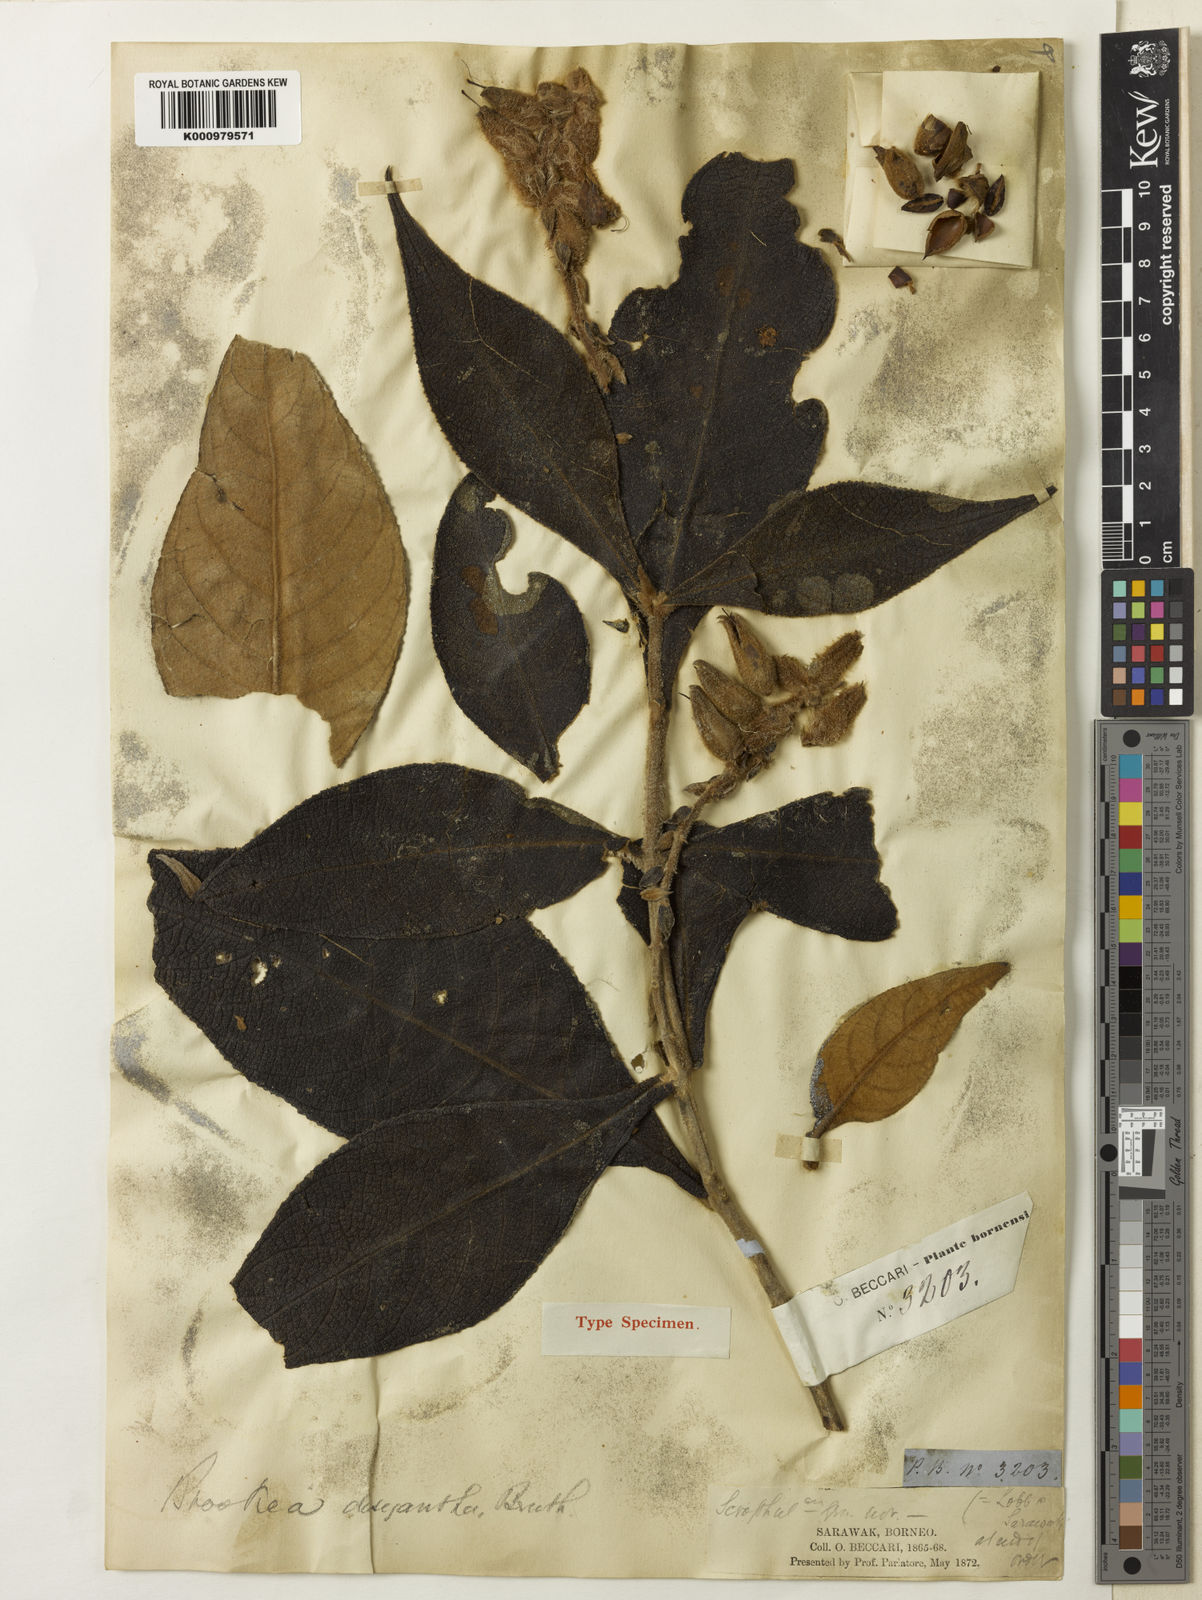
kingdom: Plantae
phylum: Tracheophyta
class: Magnoliopsida
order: Lamiales
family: Plantaginaceae
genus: Brookea
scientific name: Brookea dasyantha
